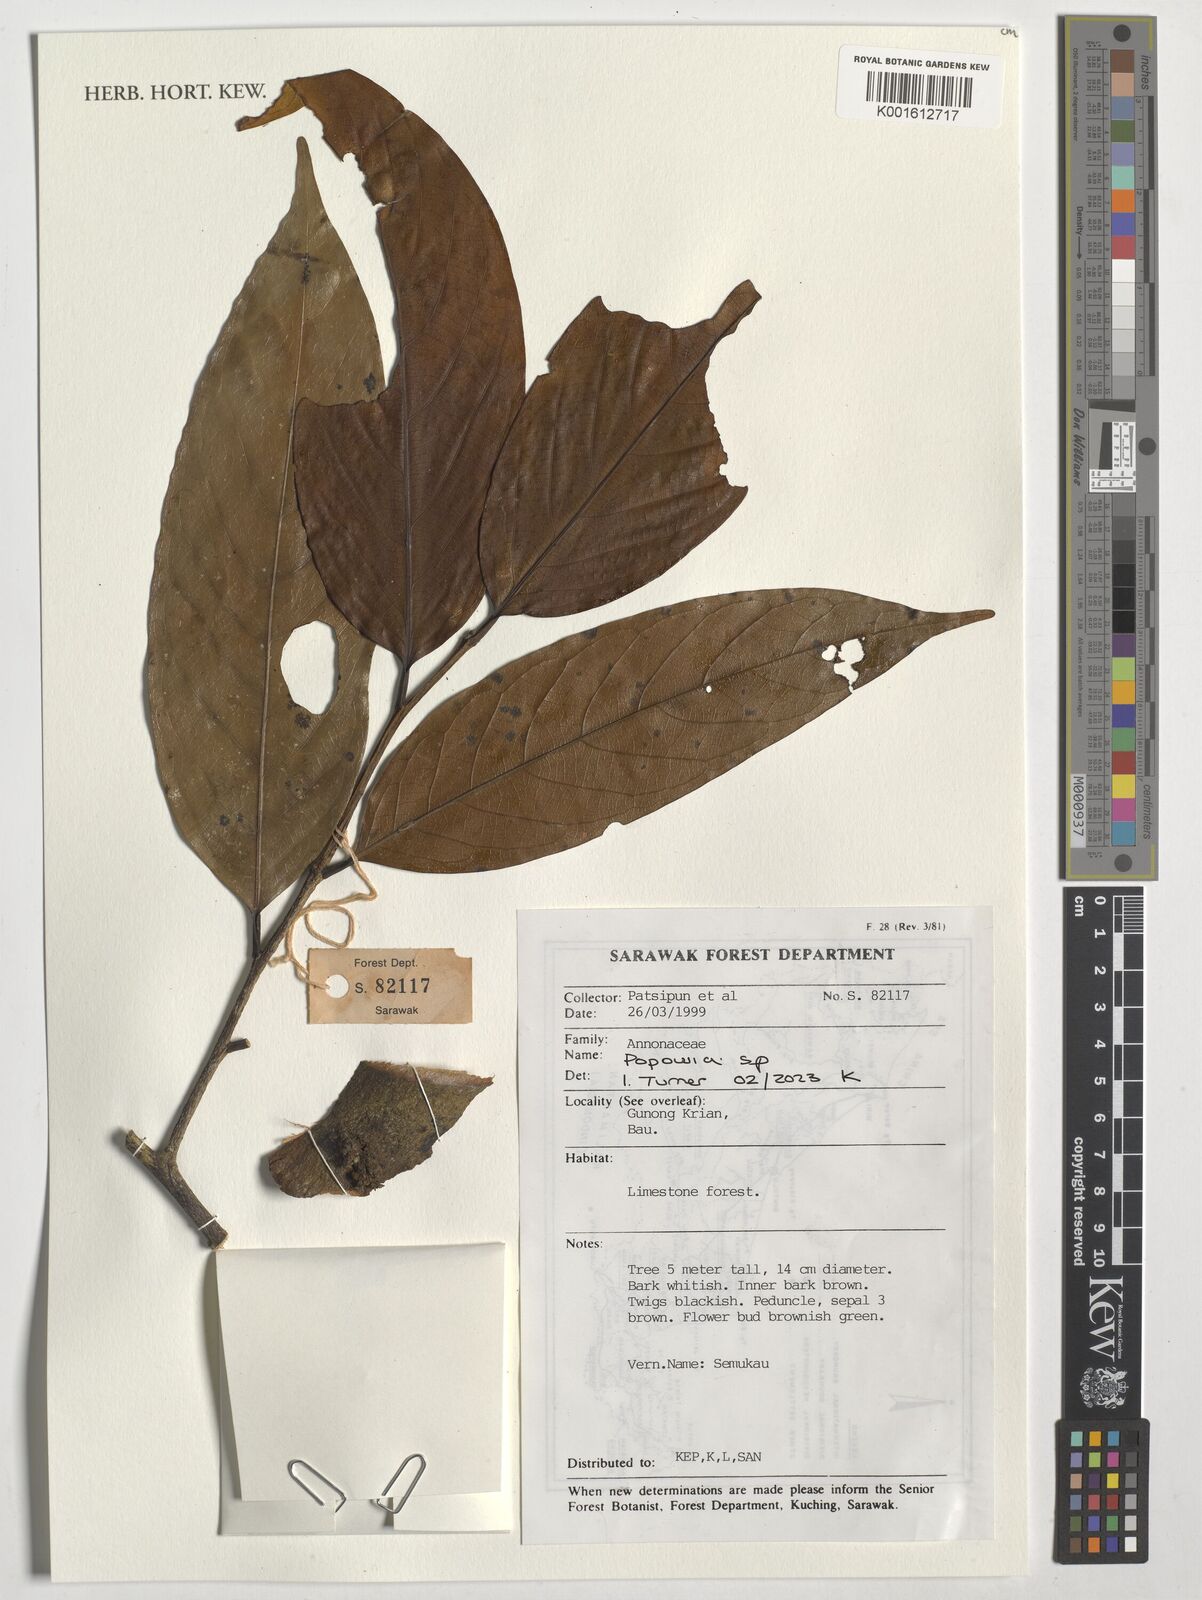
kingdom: Plantae
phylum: Tracheophyta
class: Magnoliopsida
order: Magnoliales
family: Annonaceae
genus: Popowia
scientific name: Popowia
